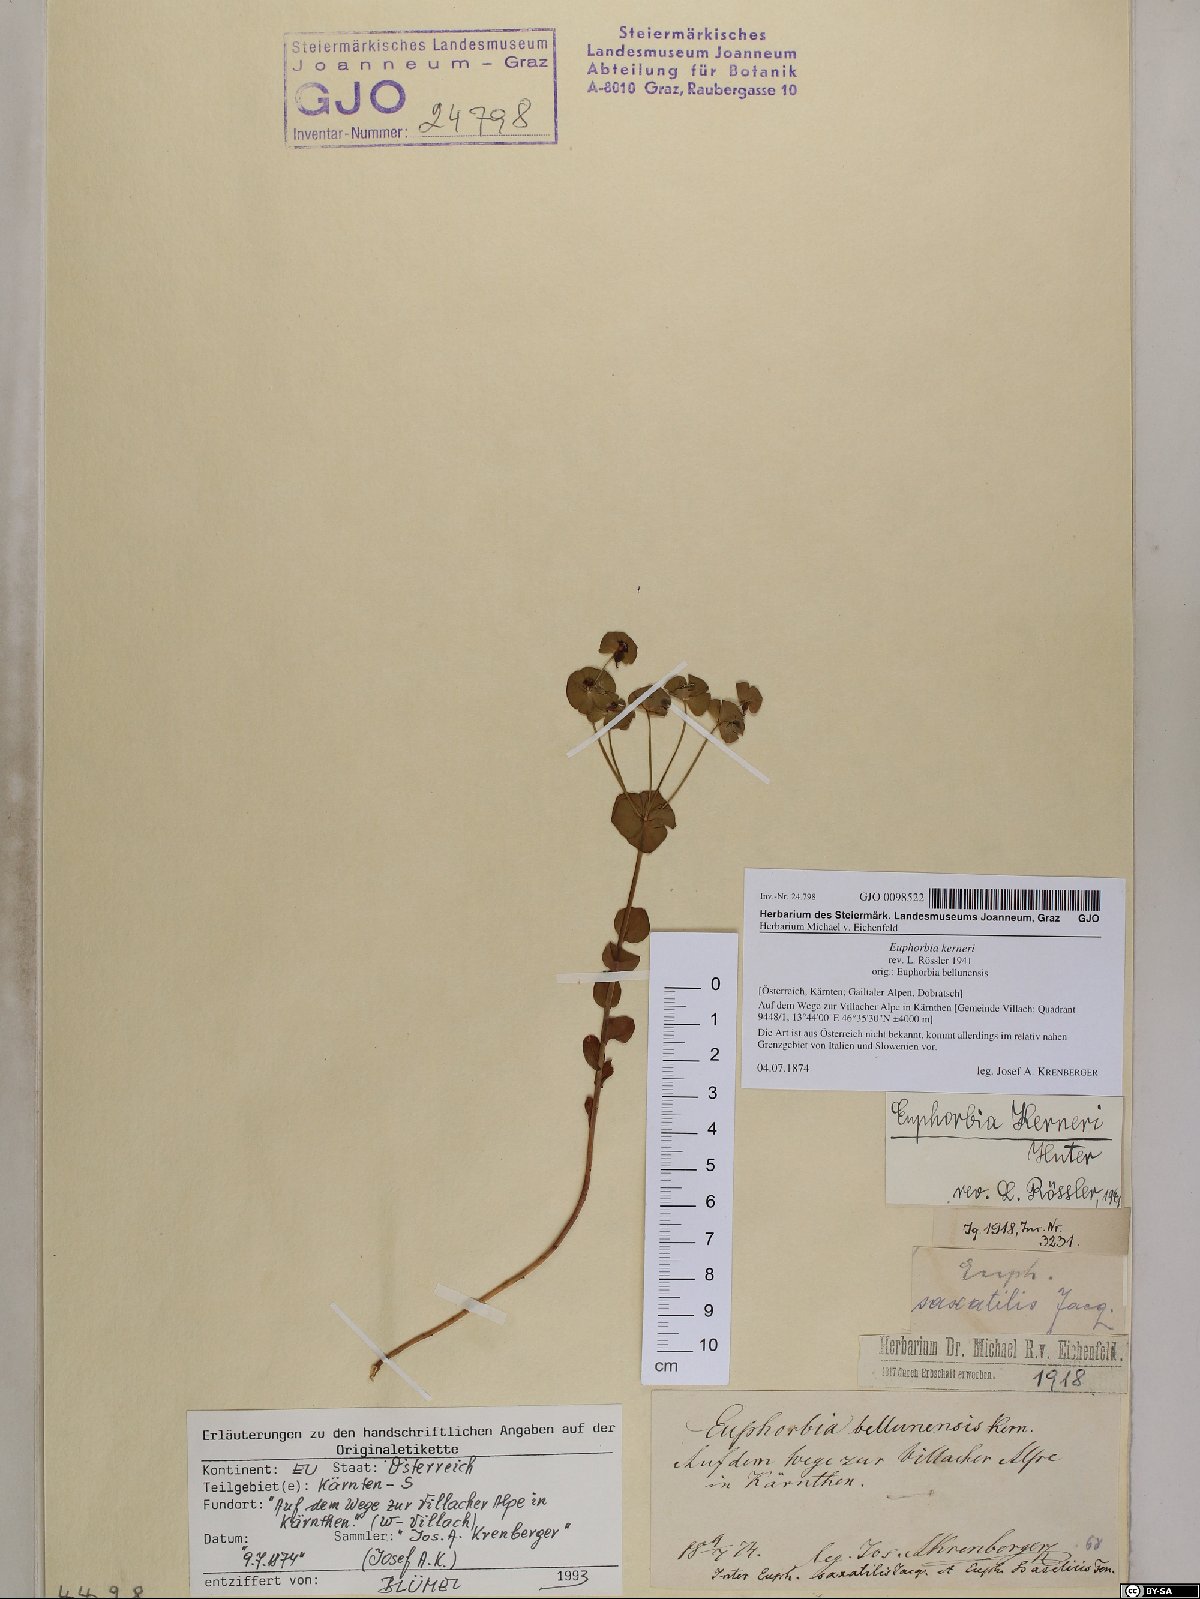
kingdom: Plantae
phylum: Tracheophyta
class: Magnoliopsida
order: Malpighiales
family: Euphorbiaceae
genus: Euphorbia
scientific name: Euphorbia kerneri
